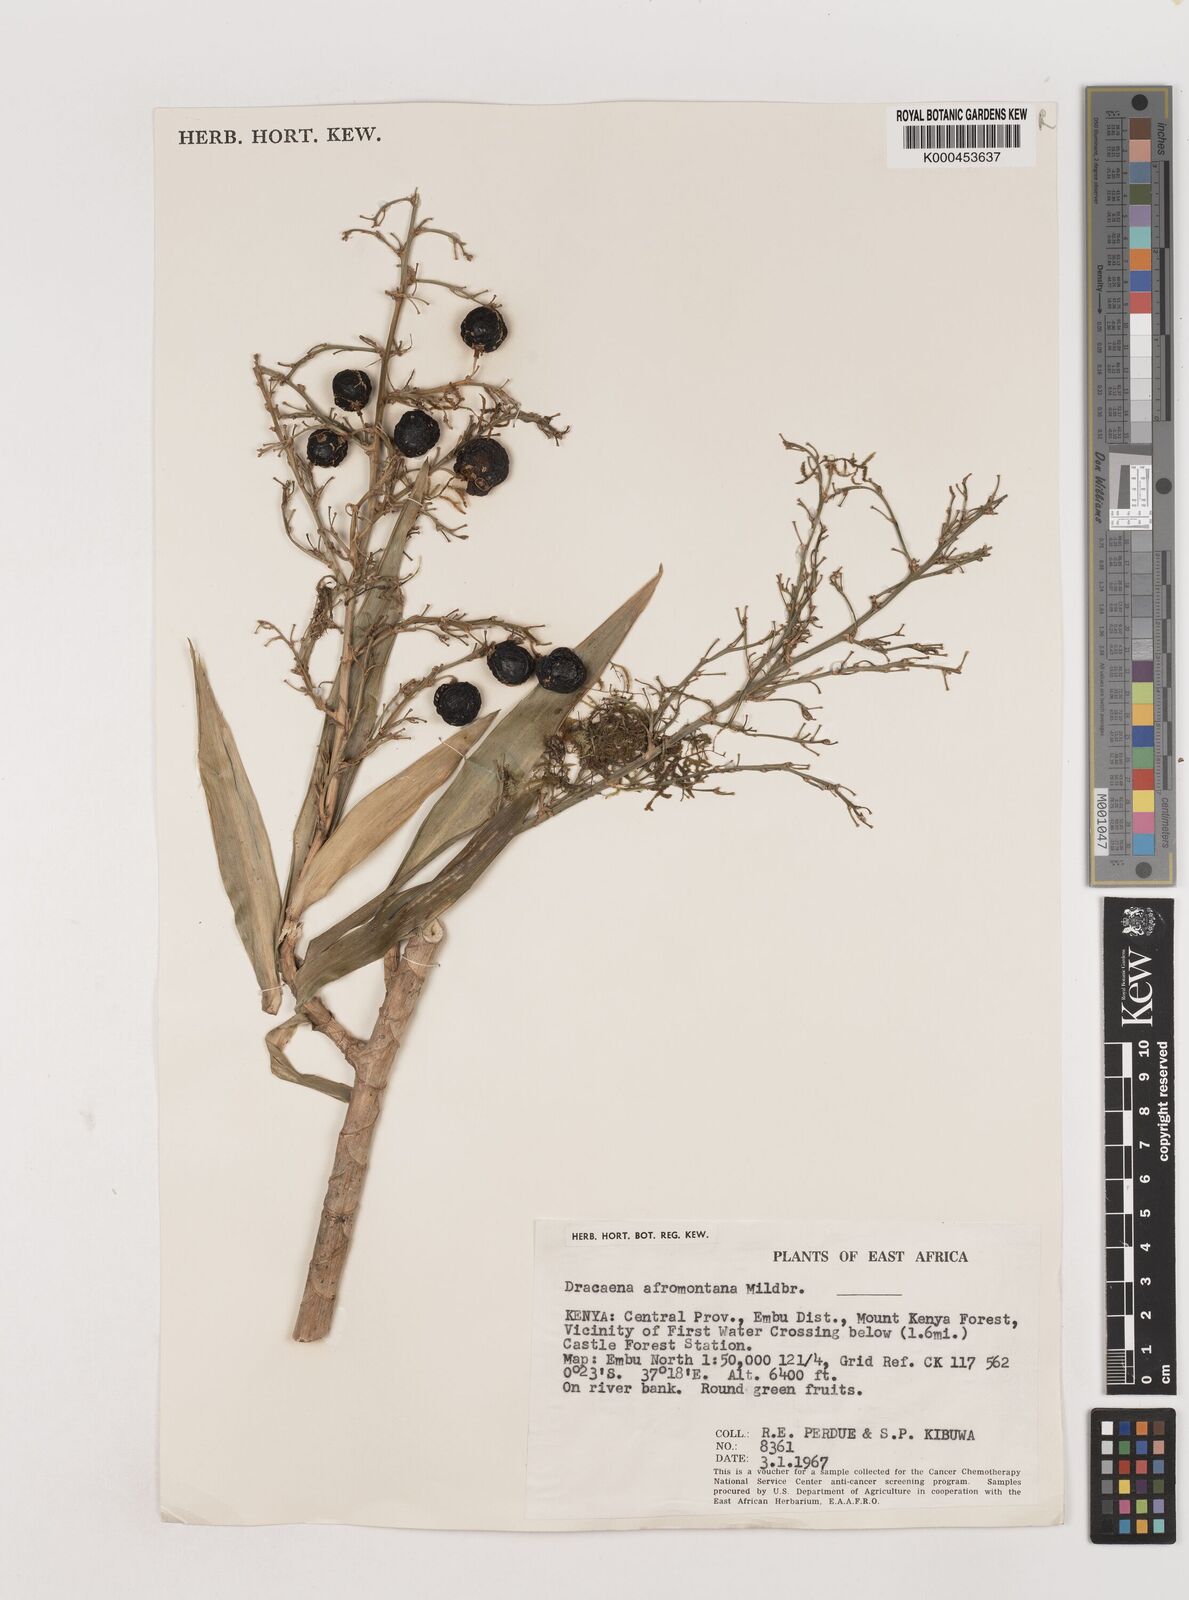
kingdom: Plantae
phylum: Tracheophyta
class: Liliopsida
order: Asparagales
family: Asparagaceae
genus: Dracaena
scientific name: Dracaena afromontana
